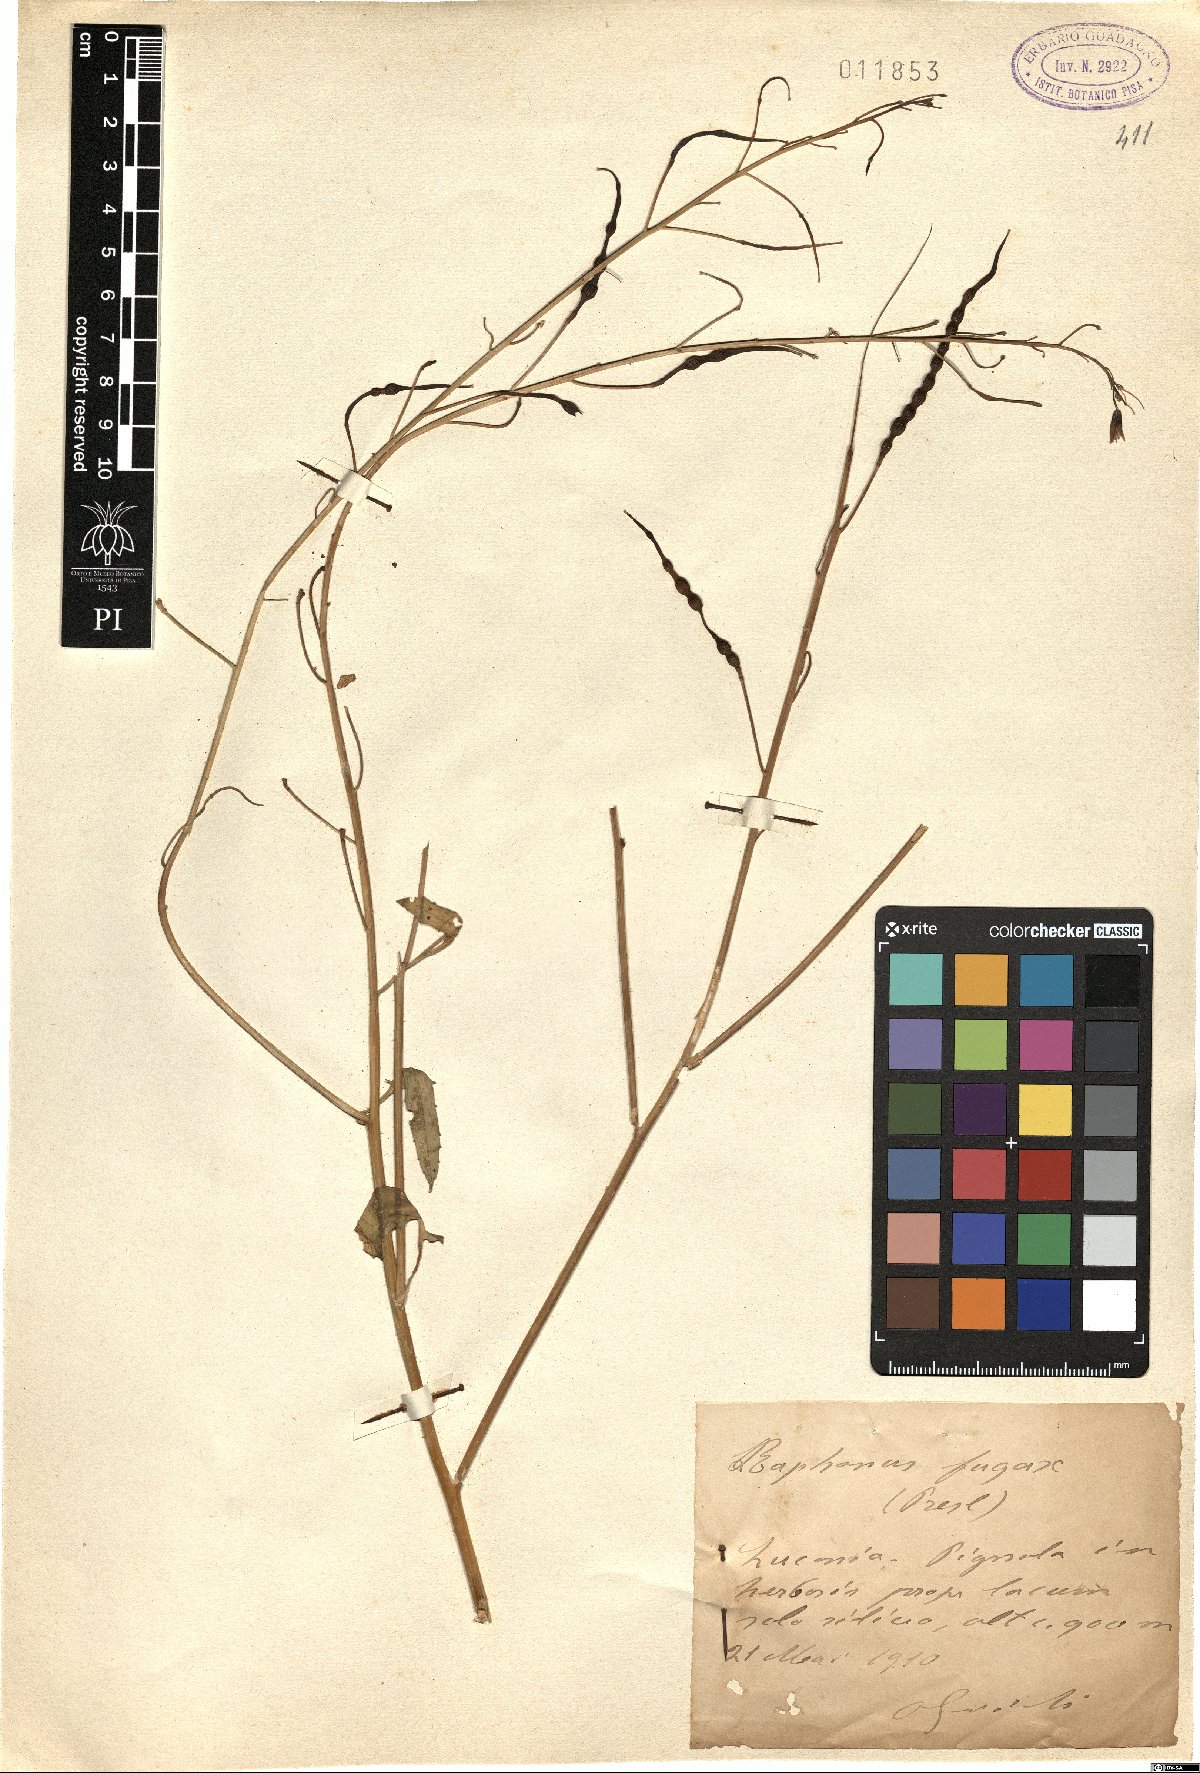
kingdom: Plantae
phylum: Tracheophyta
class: Magnoliopsida
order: Brassicales
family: Brassicaceae
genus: Raphanus
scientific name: Raphanus raphanistrum
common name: Wild radish
